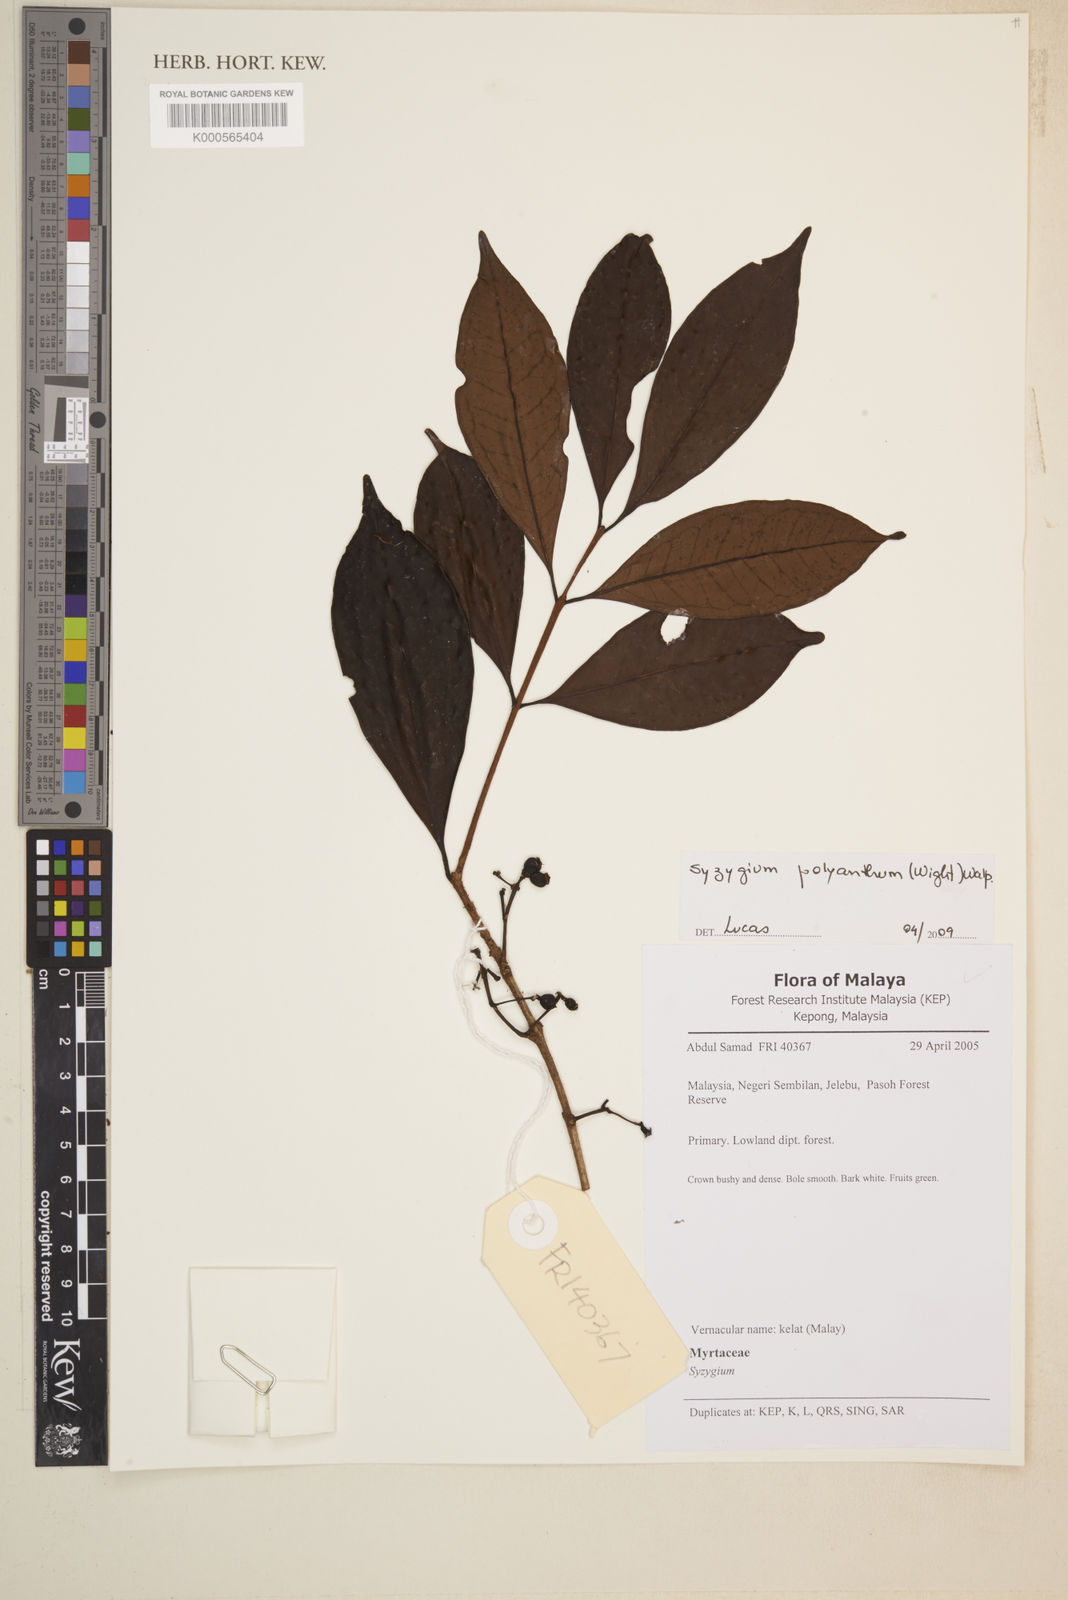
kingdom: Plantae
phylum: Tracheophyta
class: Magnoliopsida
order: Myrtales
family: Myrtaceae
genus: Syzygium
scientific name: Syzygium polyanthum
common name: Indonesian bayleaf
